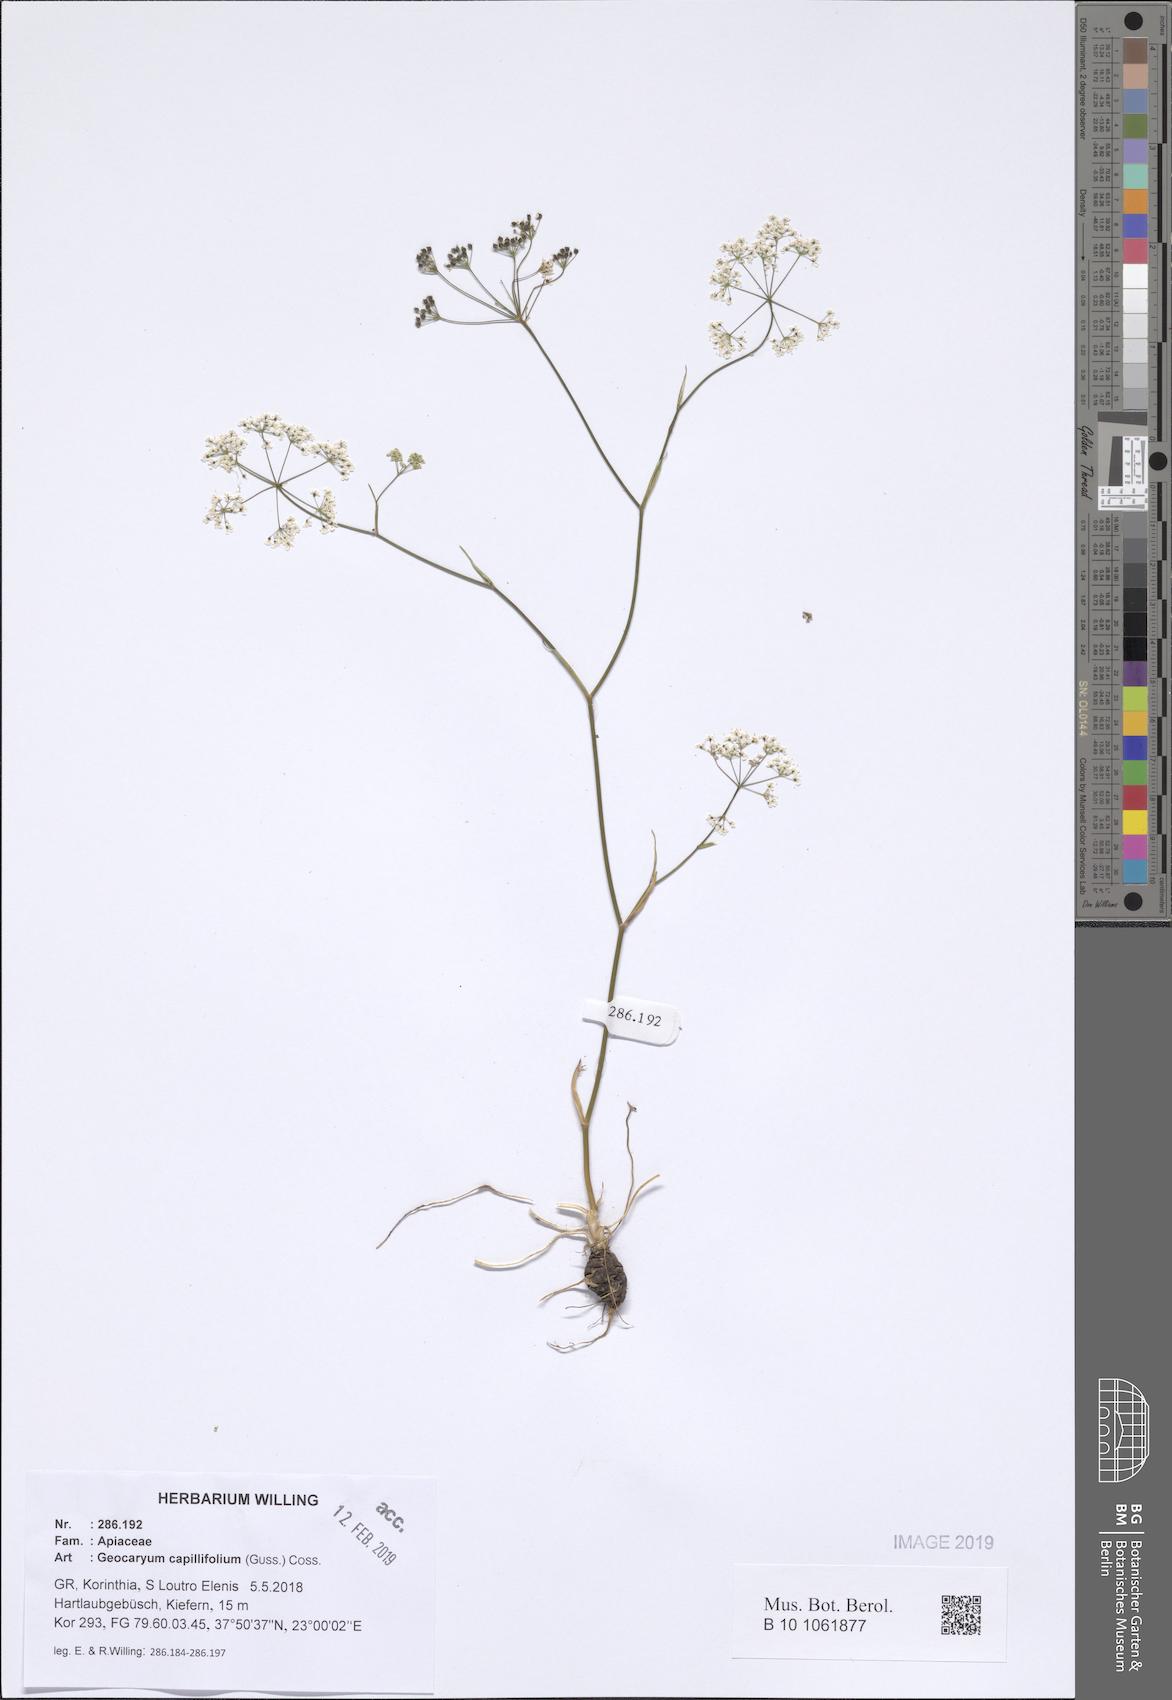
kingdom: Plantae
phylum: Tracheophyta
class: Magnoliopsida
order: Apiales
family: Apiaceae
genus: Geocaryum
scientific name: Geocaryum capillifolium
